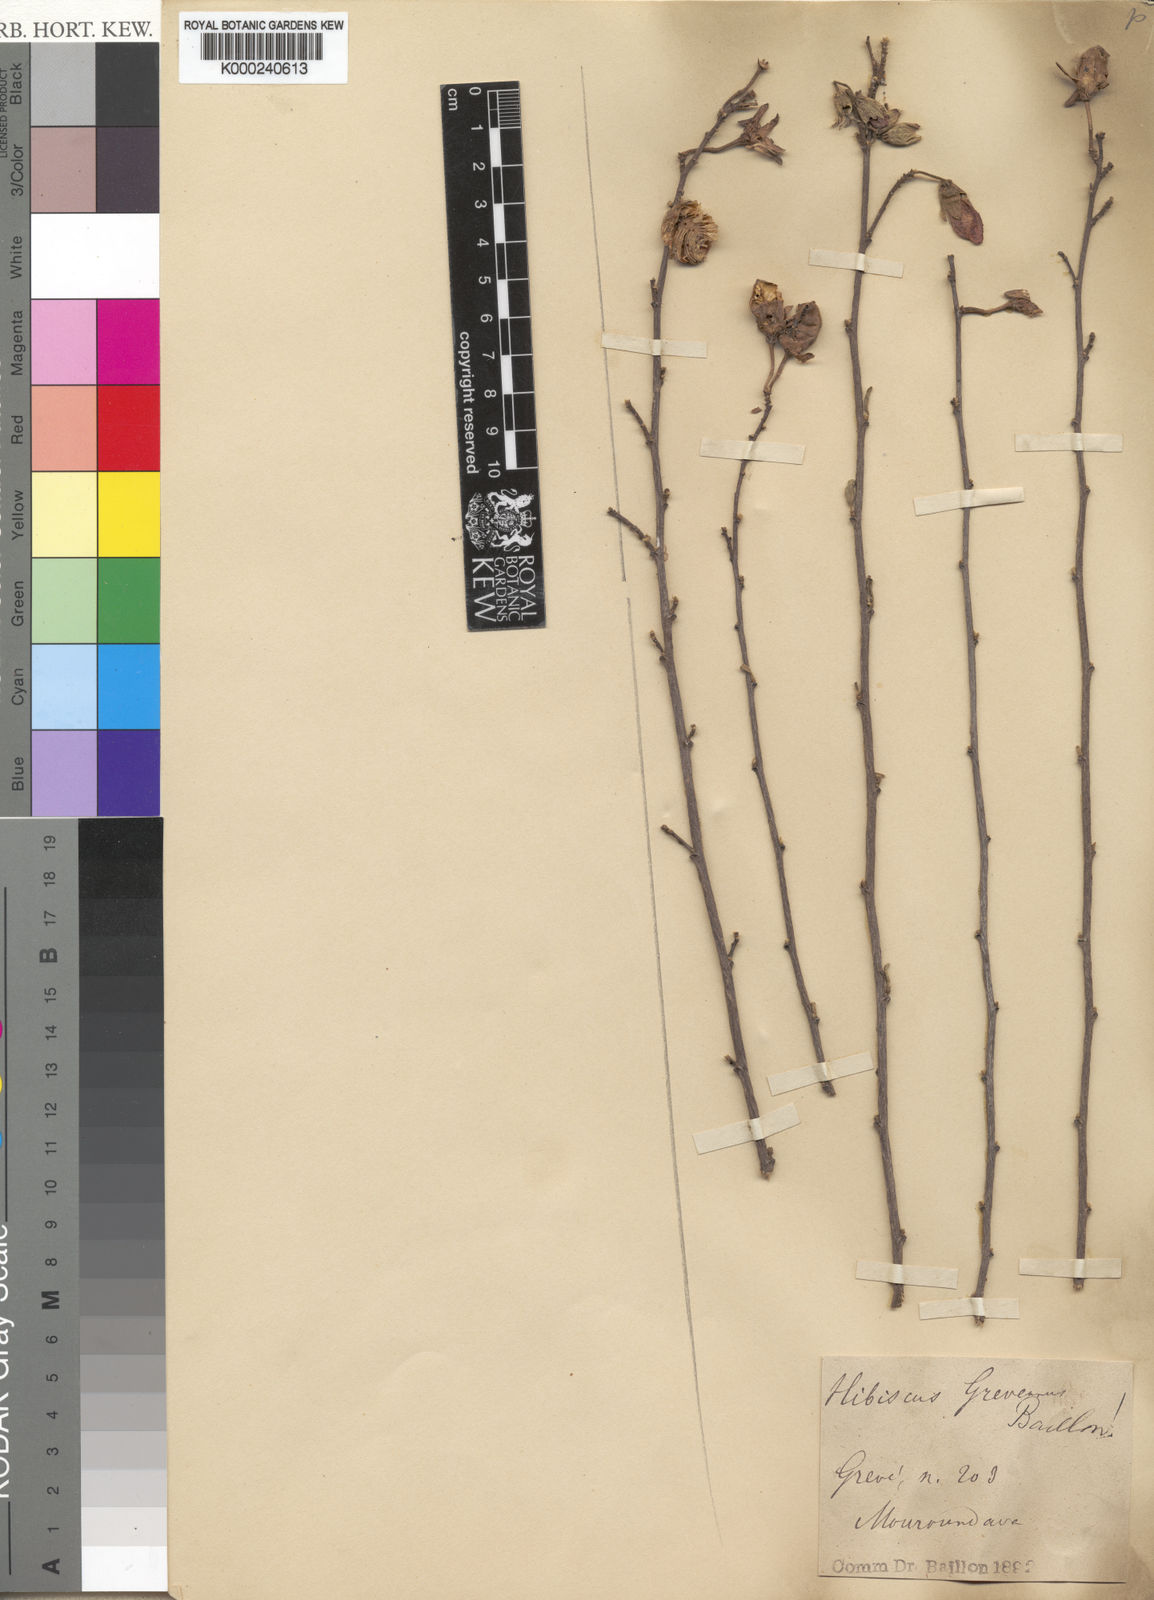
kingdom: Plantae
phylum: Tracheophyta
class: Magnoliopsida
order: Malvales
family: Malvaceae
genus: Hibiscus
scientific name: Hibiscus grandidieri
